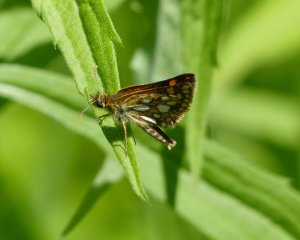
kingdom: Animalia
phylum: Arthropoda
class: Insecta
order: Lepidoptera
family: Hesperiidae
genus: Carterocephalus
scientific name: Carterocephalus palaemon
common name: Chequered Skipper
